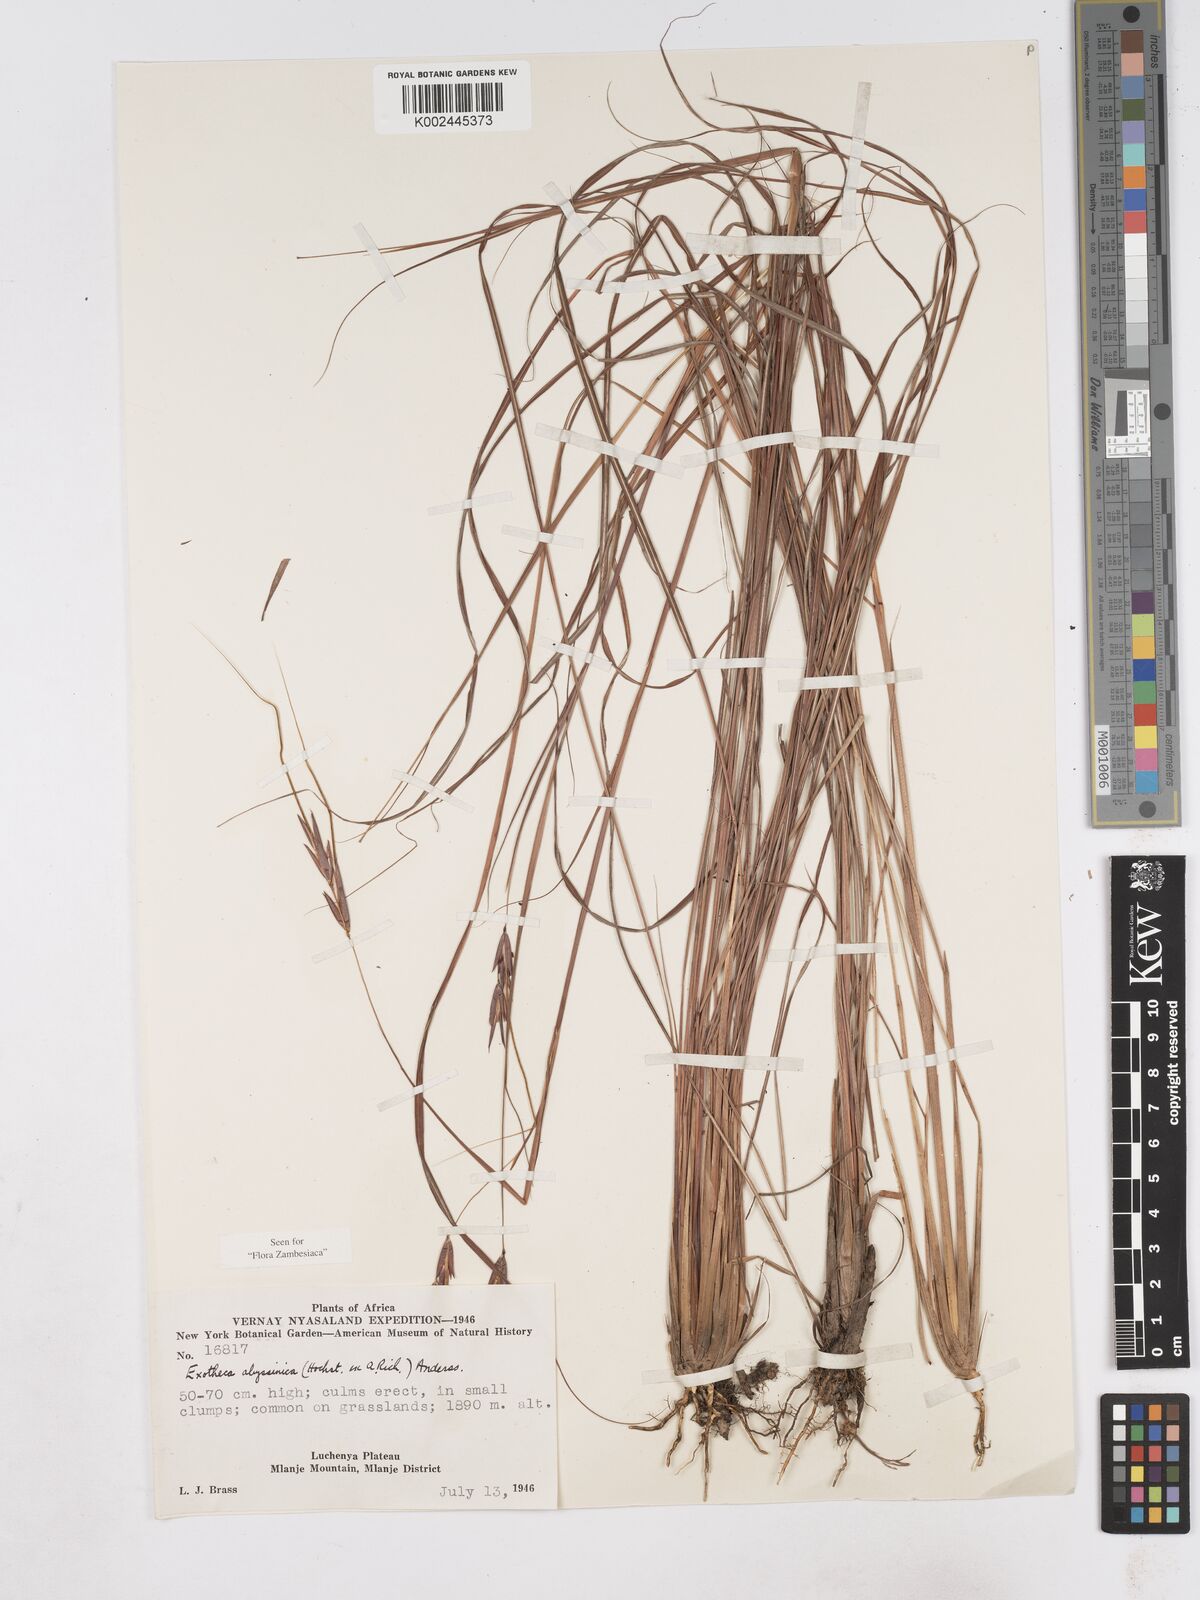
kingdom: Plantae
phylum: Tracheophyta
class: Liliopsida
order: Poales
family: Poaceae
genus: Exotheca
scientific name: Exotheca abyssinica
